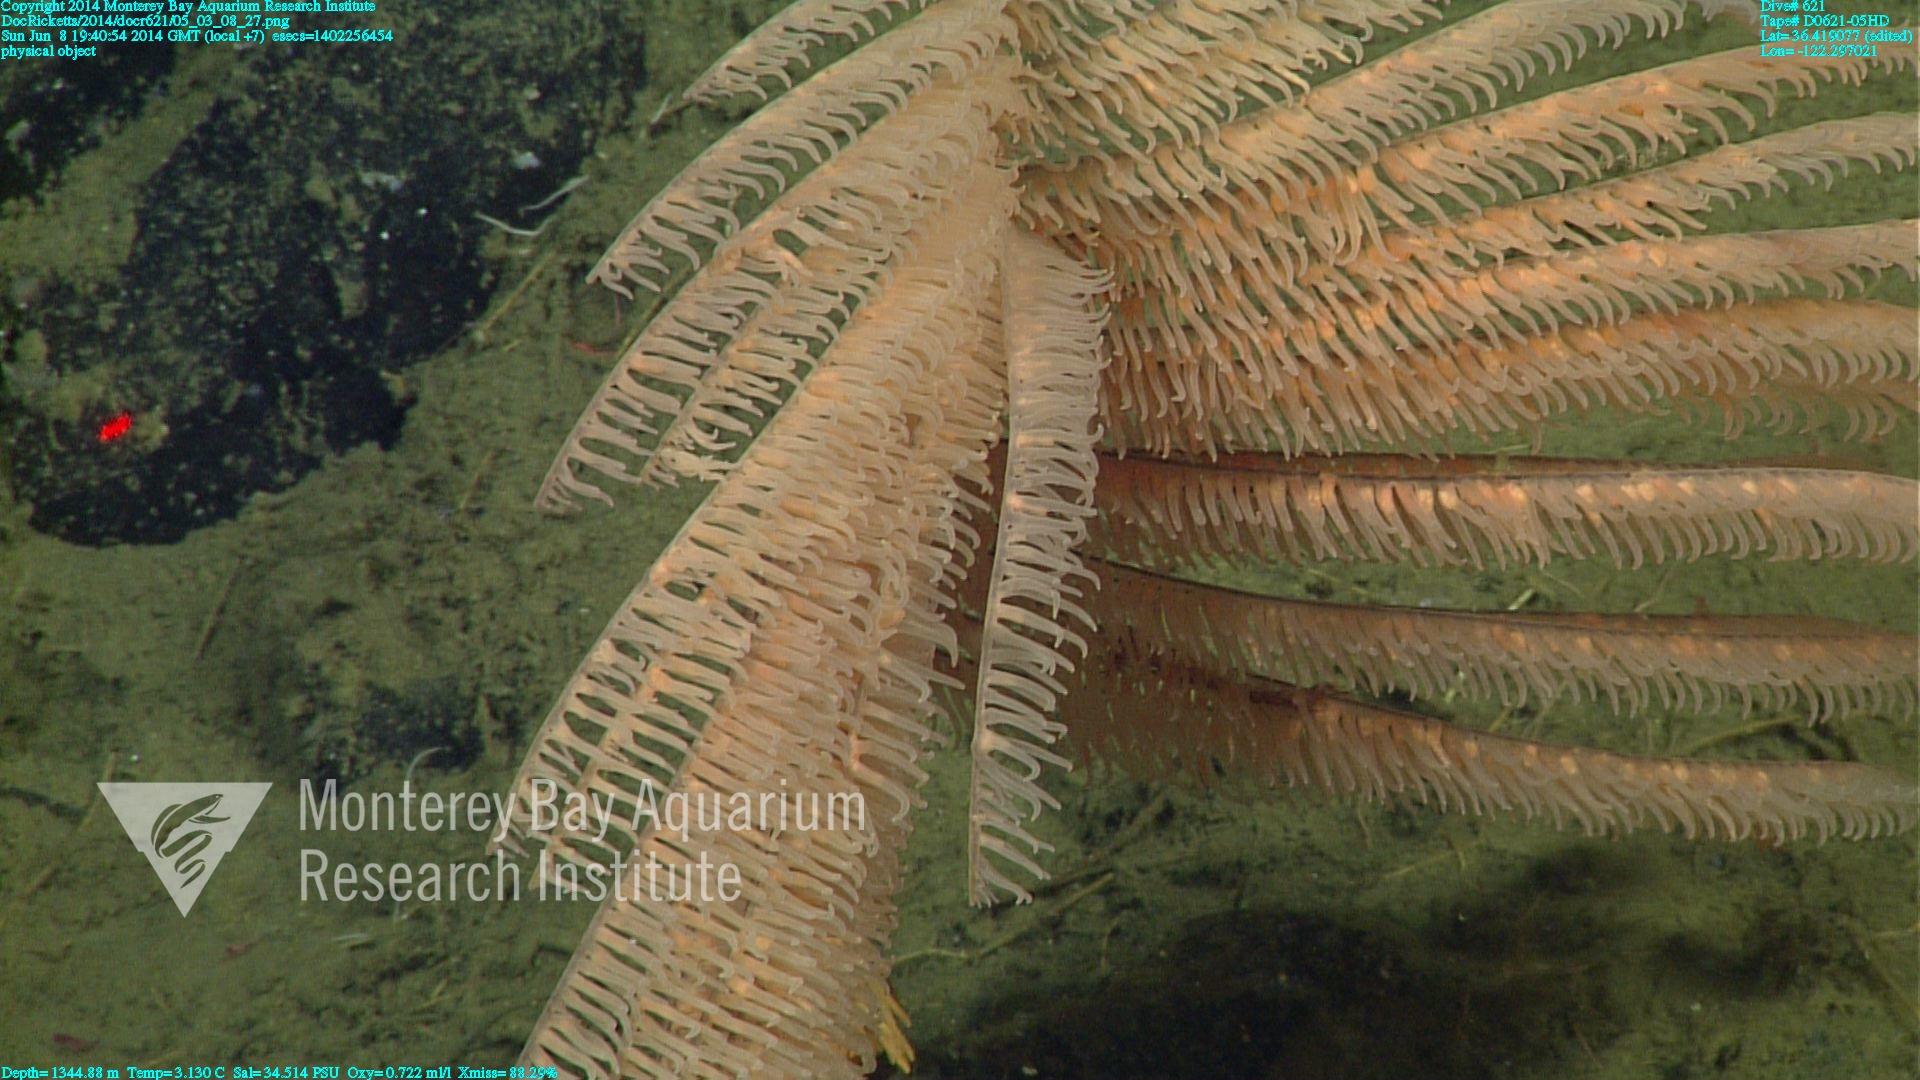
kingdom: Animalia
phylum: Cnidaria
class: Anthozoa
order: Antipatharia
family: Schizopathidae
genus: Bathypathes
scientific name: Bathypathes
